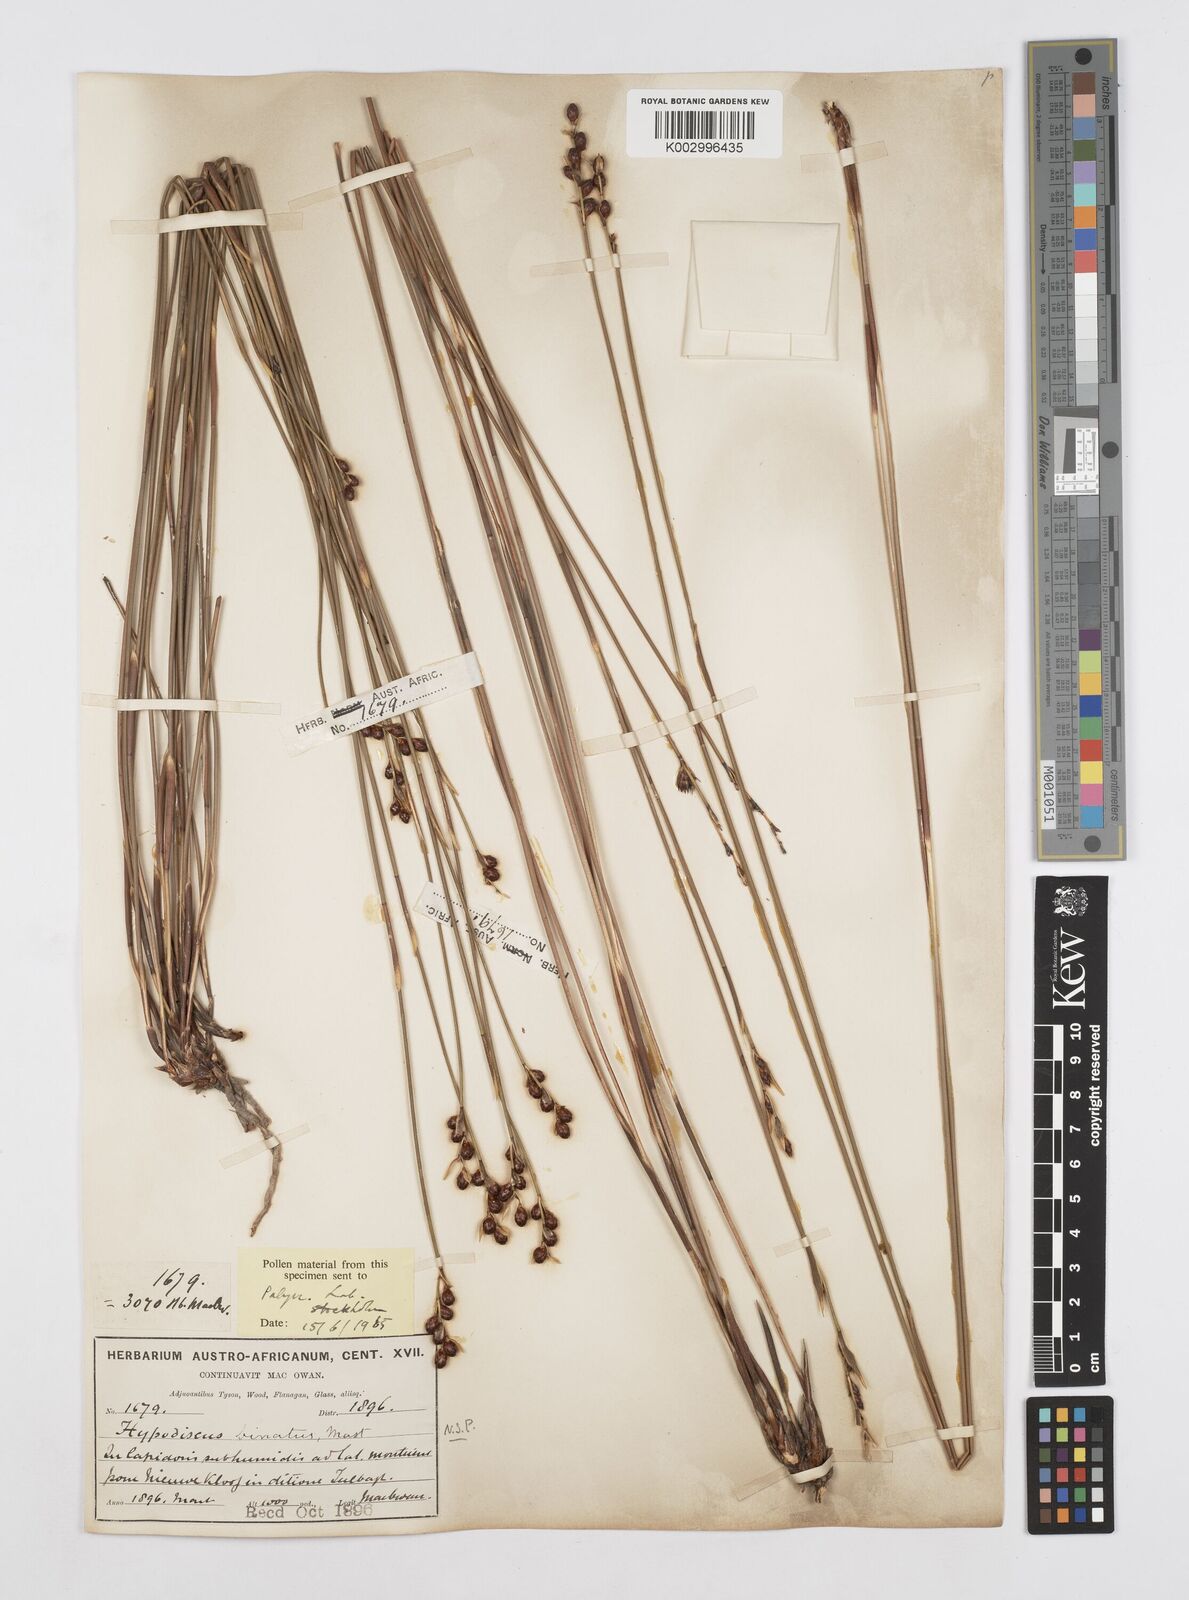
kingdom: Plantae
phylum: Tracheophyta
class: Liliopsida
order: Poales
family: Restionaceae
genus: Hypodiscus
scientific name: Hypodiscus laevigatus
